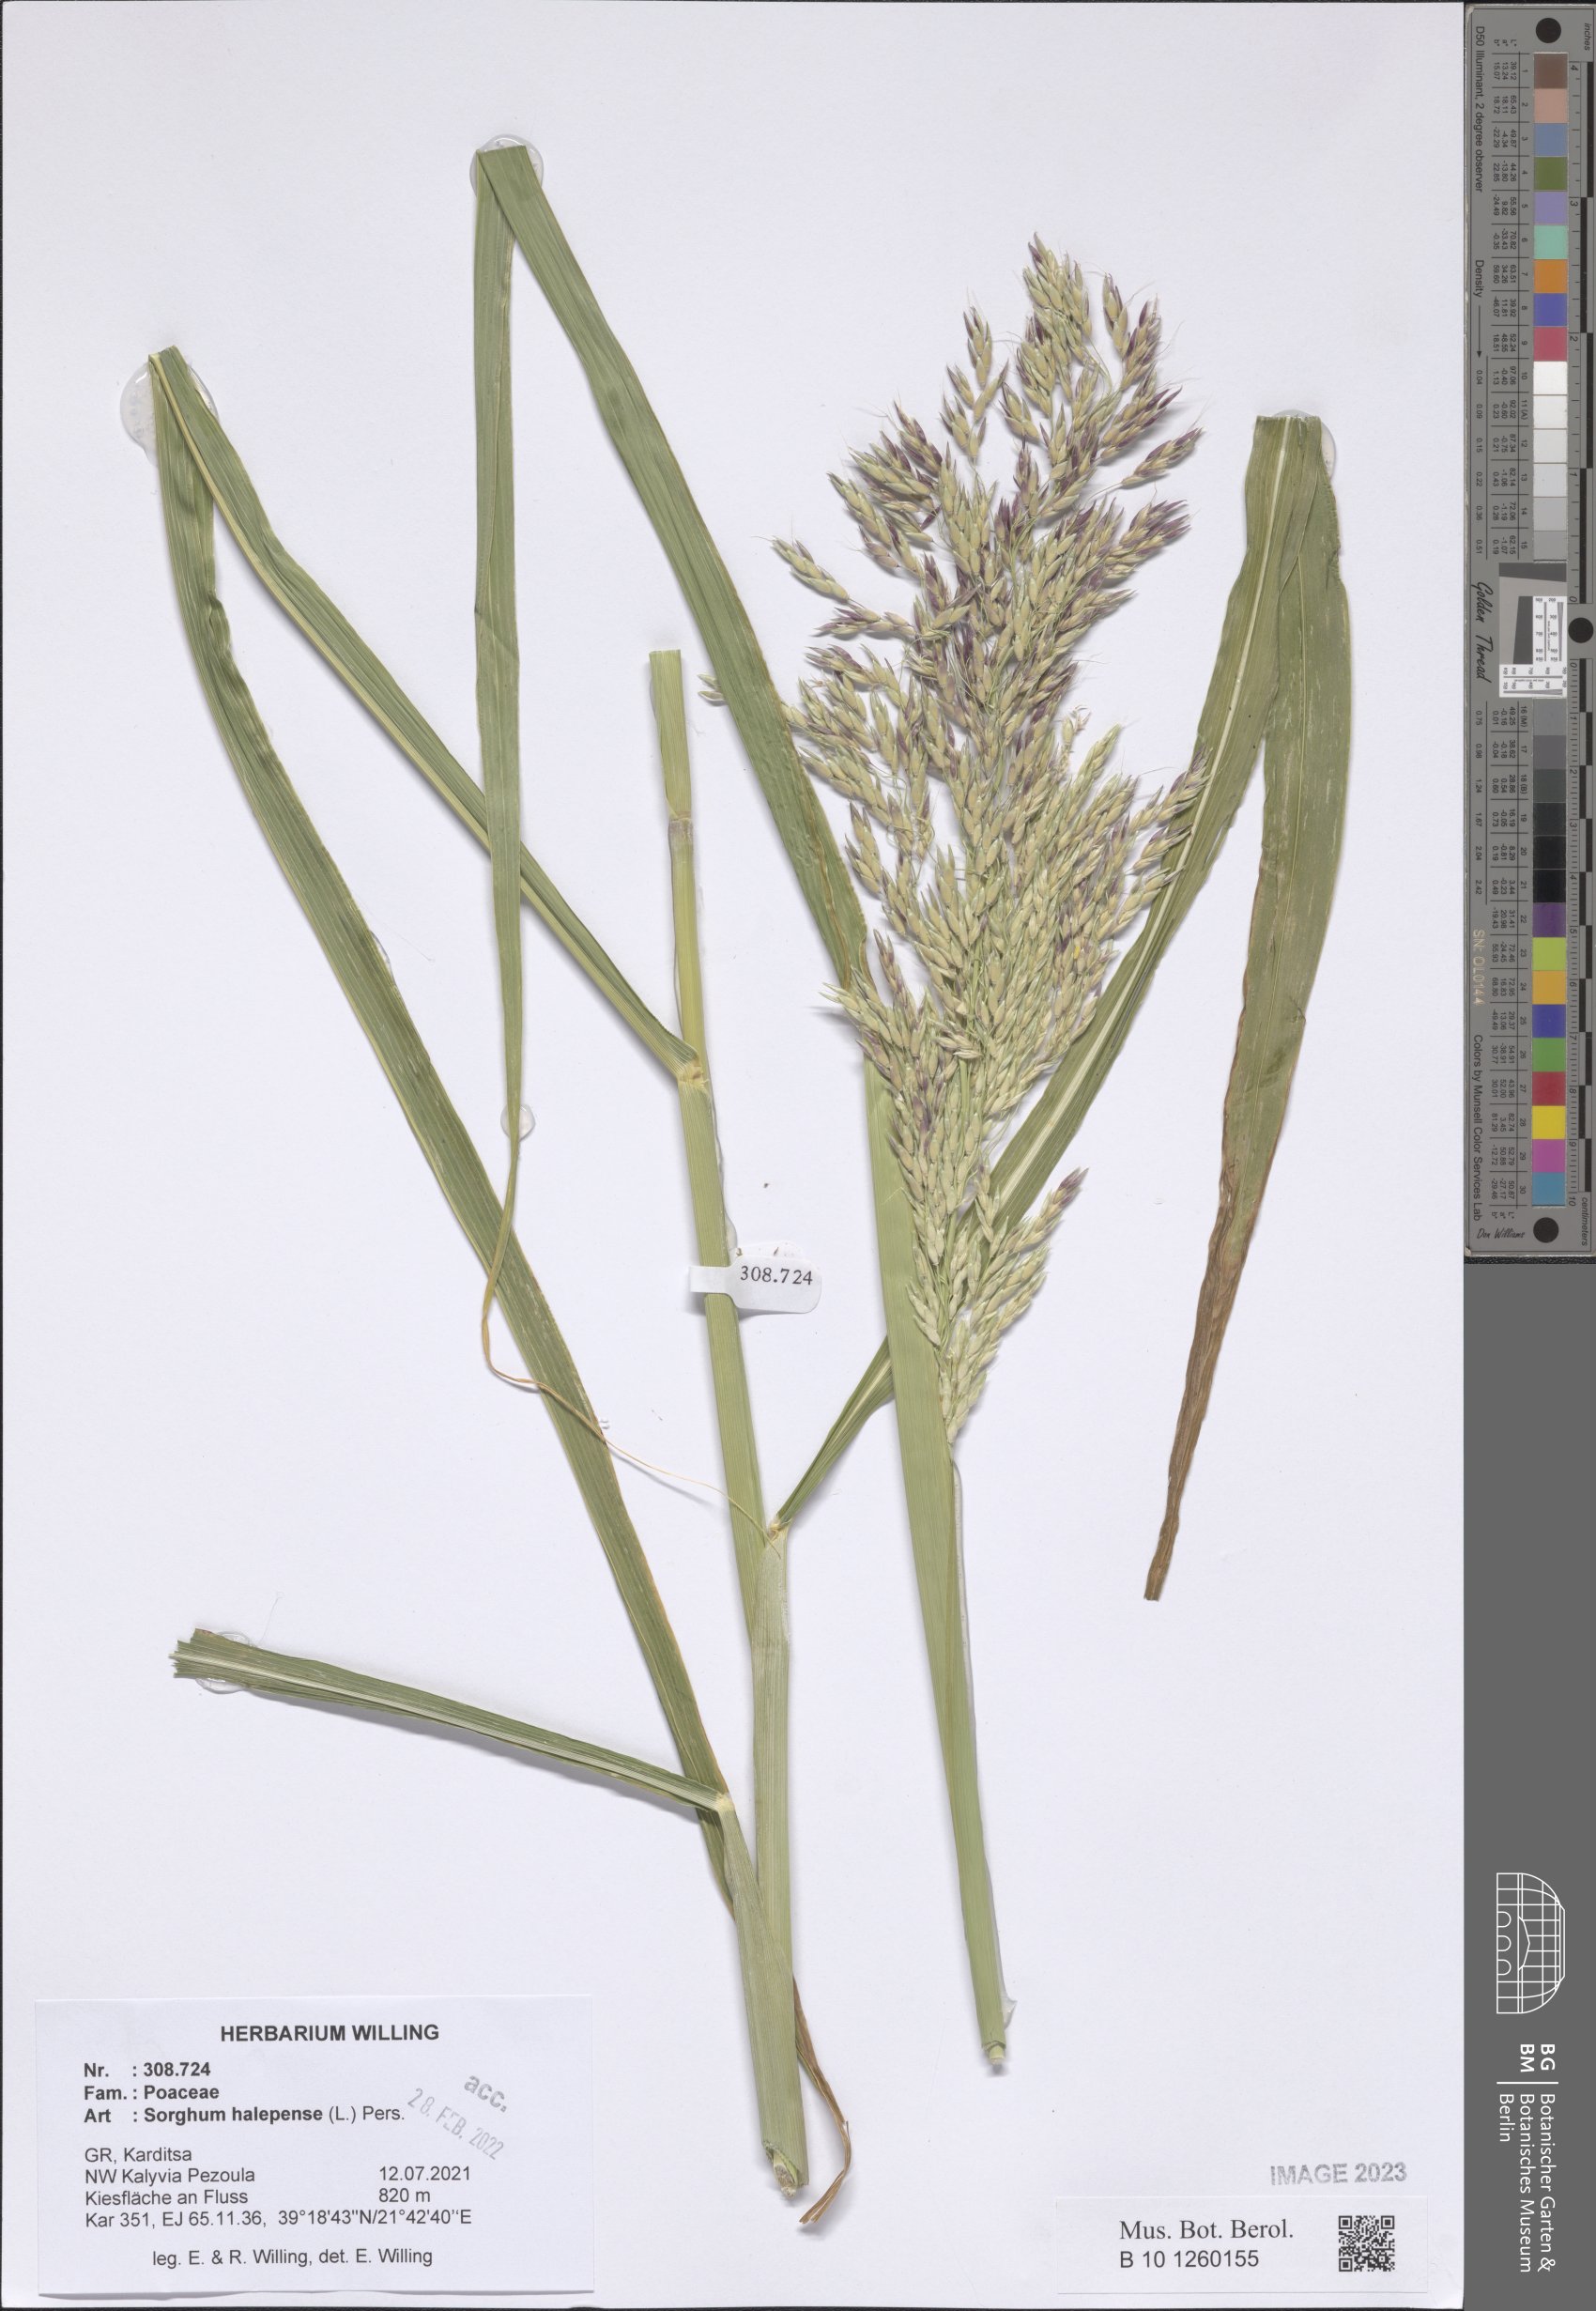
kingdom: Plantae
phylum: Tracheophyta
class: Liliopsida
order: Poales
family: Poaceae
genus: Sorghum
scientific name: Sorghum halepense
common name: Johnson-grass
